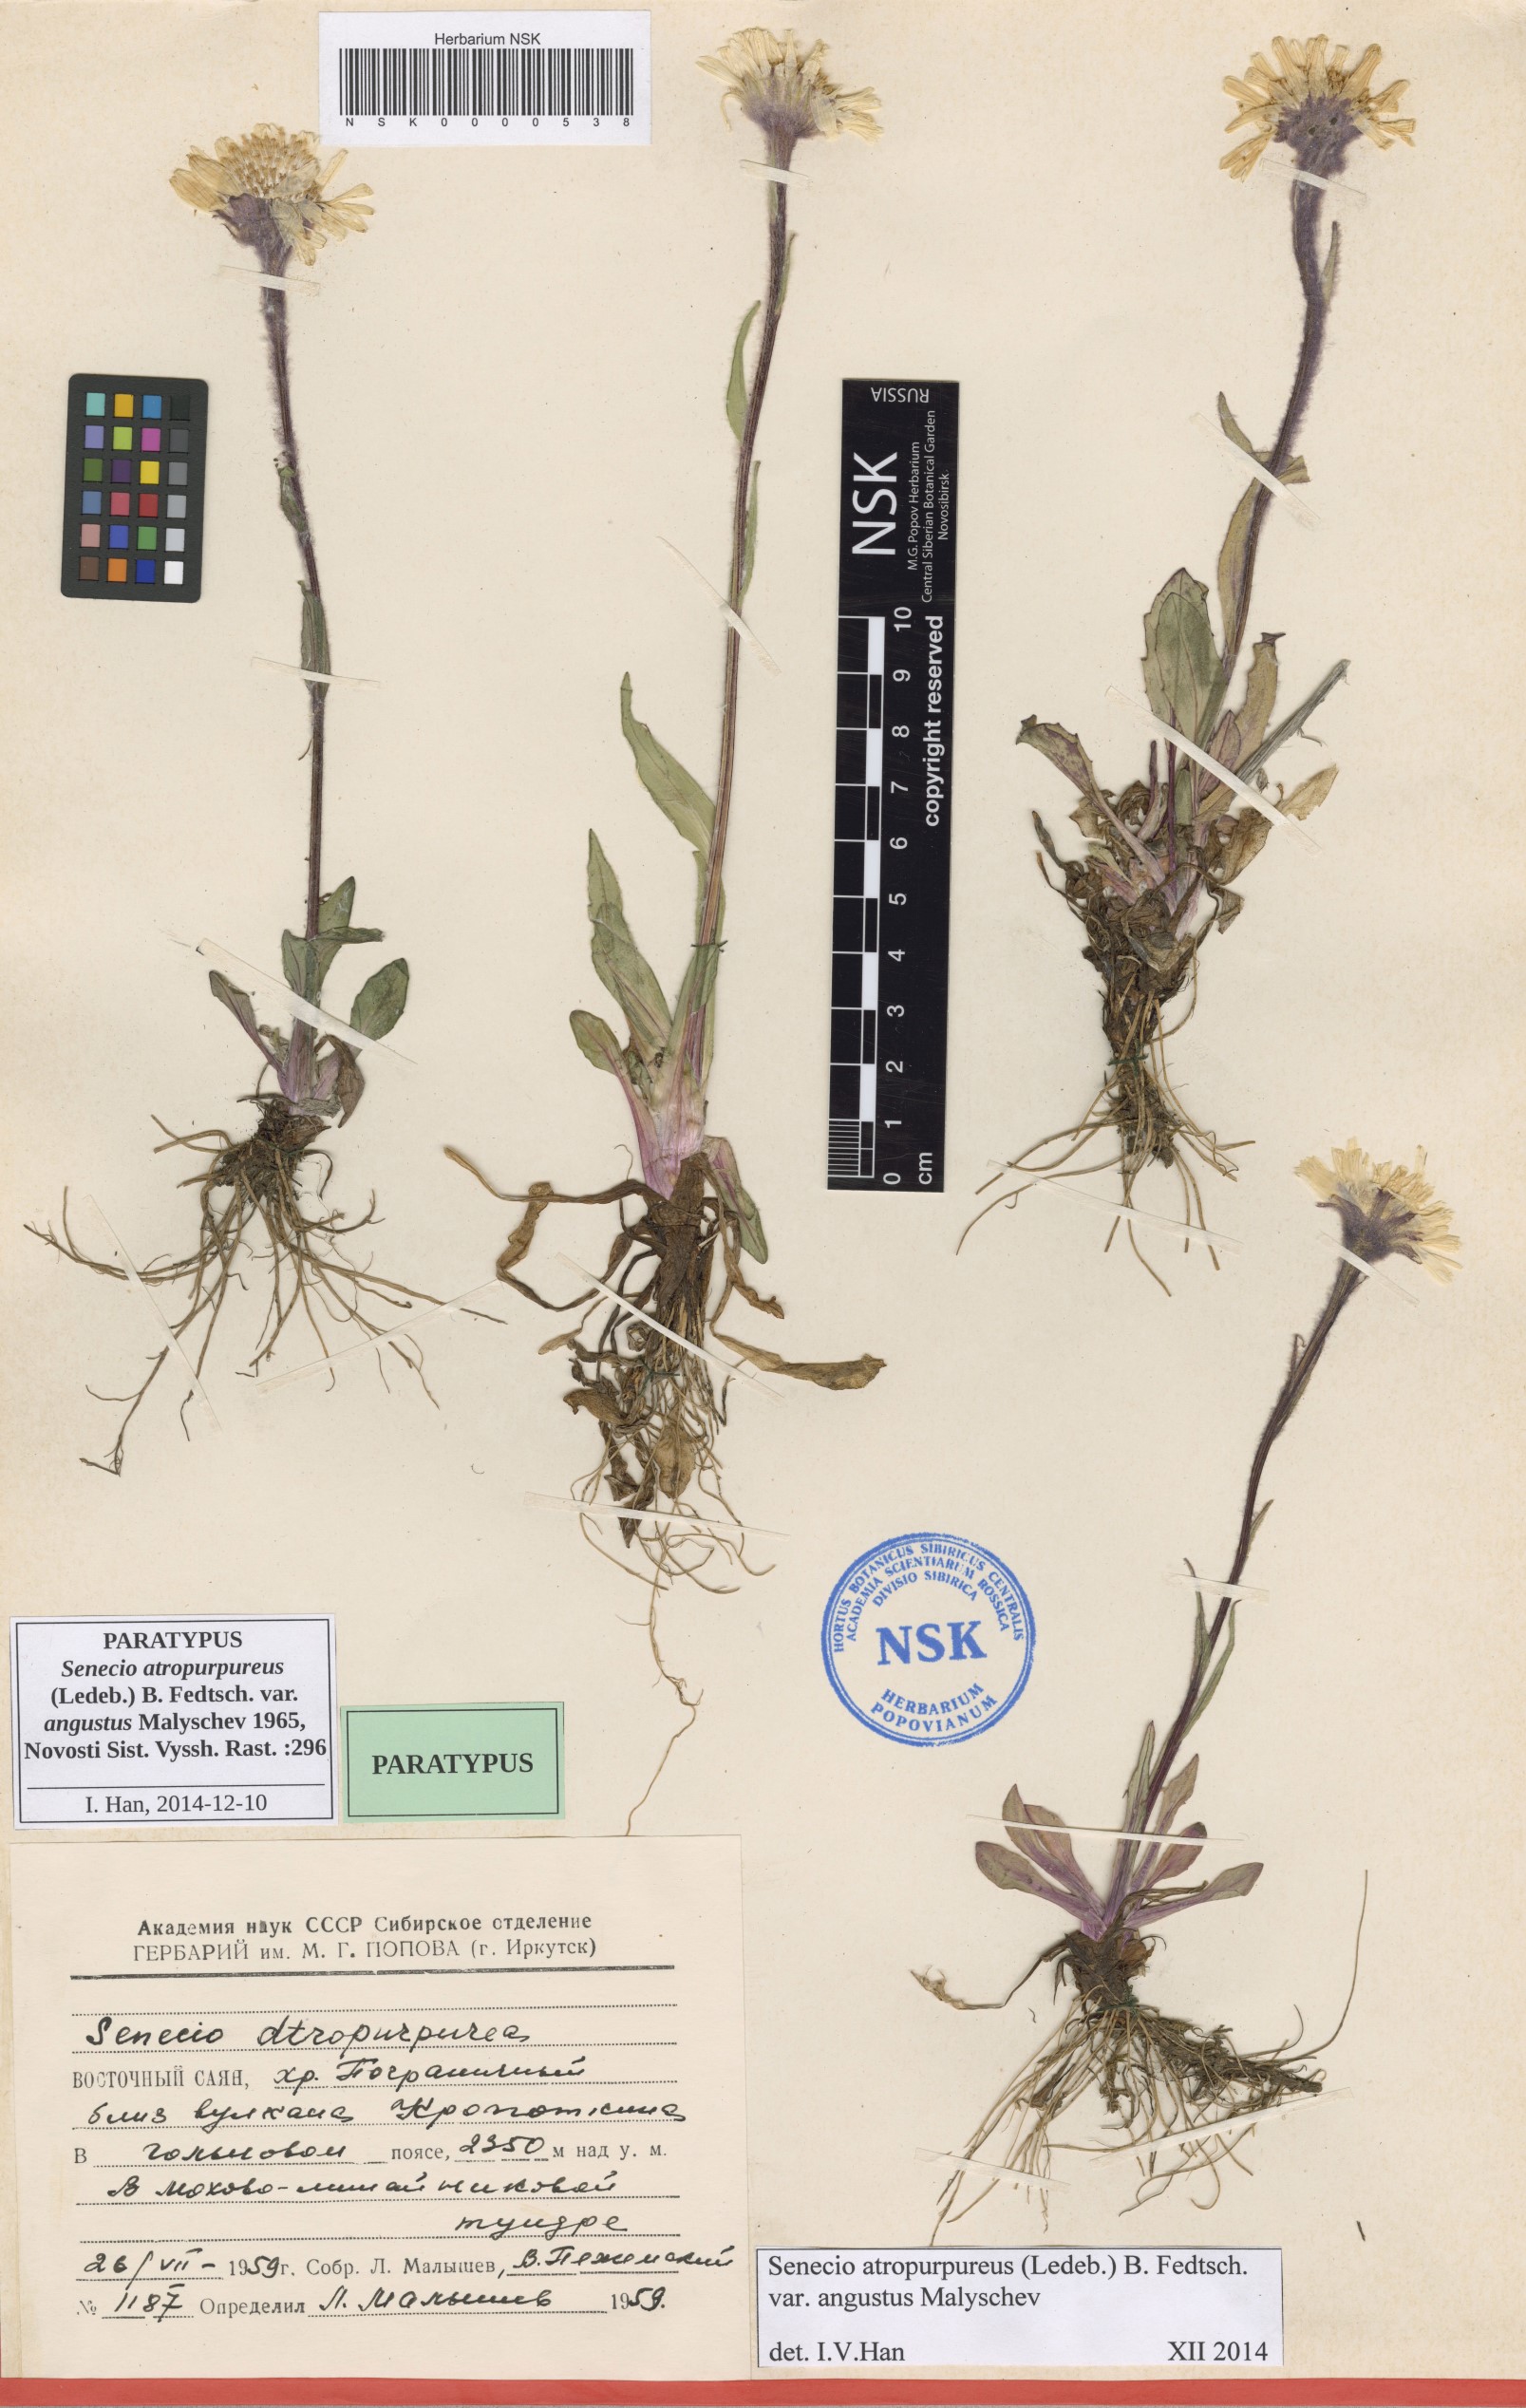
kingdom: Plantae
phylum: Tracheophyta
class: Magnoliopsida
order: Asterales
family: Asteraceae
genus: Tephroseris
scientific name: Tephroseris integrifolia
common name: Field fleawort
